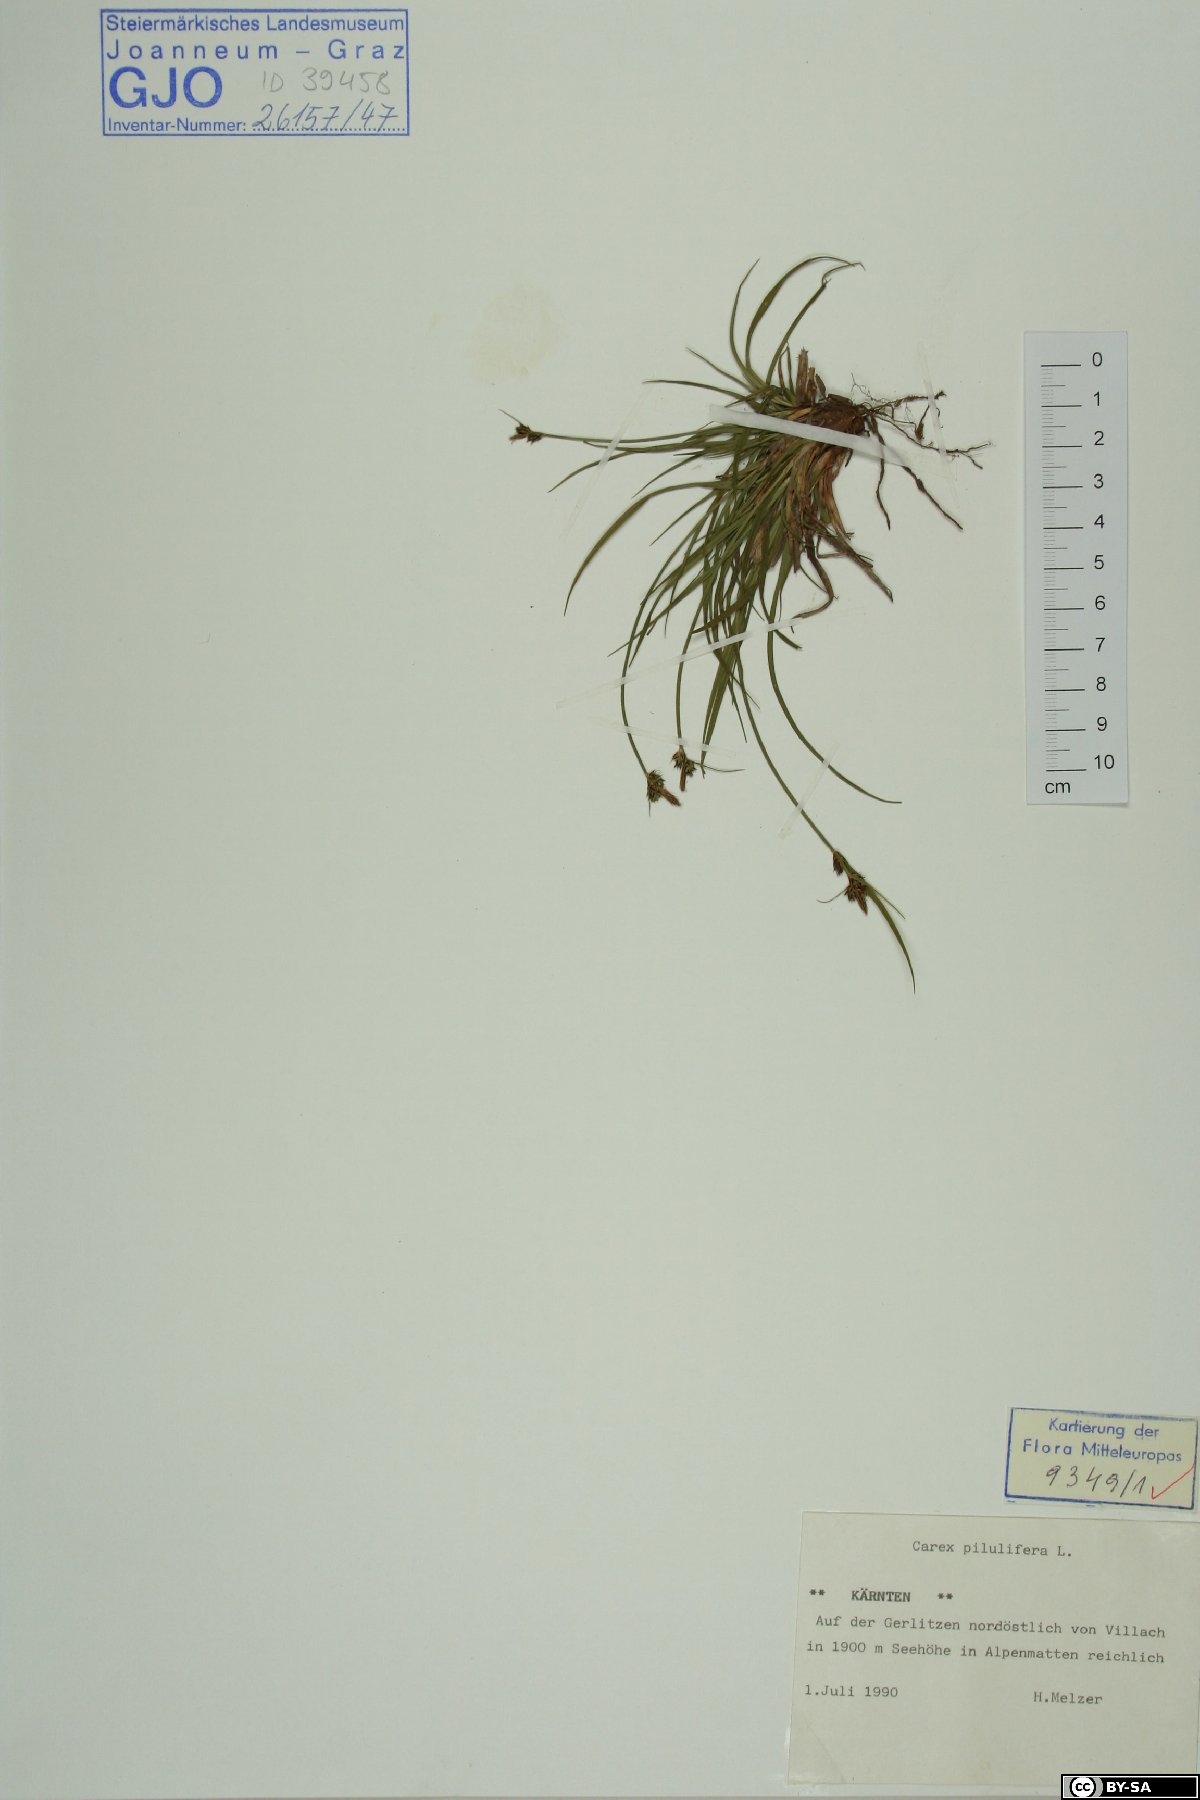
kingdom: Plantae
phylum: Tracheophyta
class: Liliopsida
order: Poales
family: Cyperaceae
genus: Carex
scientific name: Carex pilulifera
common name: Pill sedge
